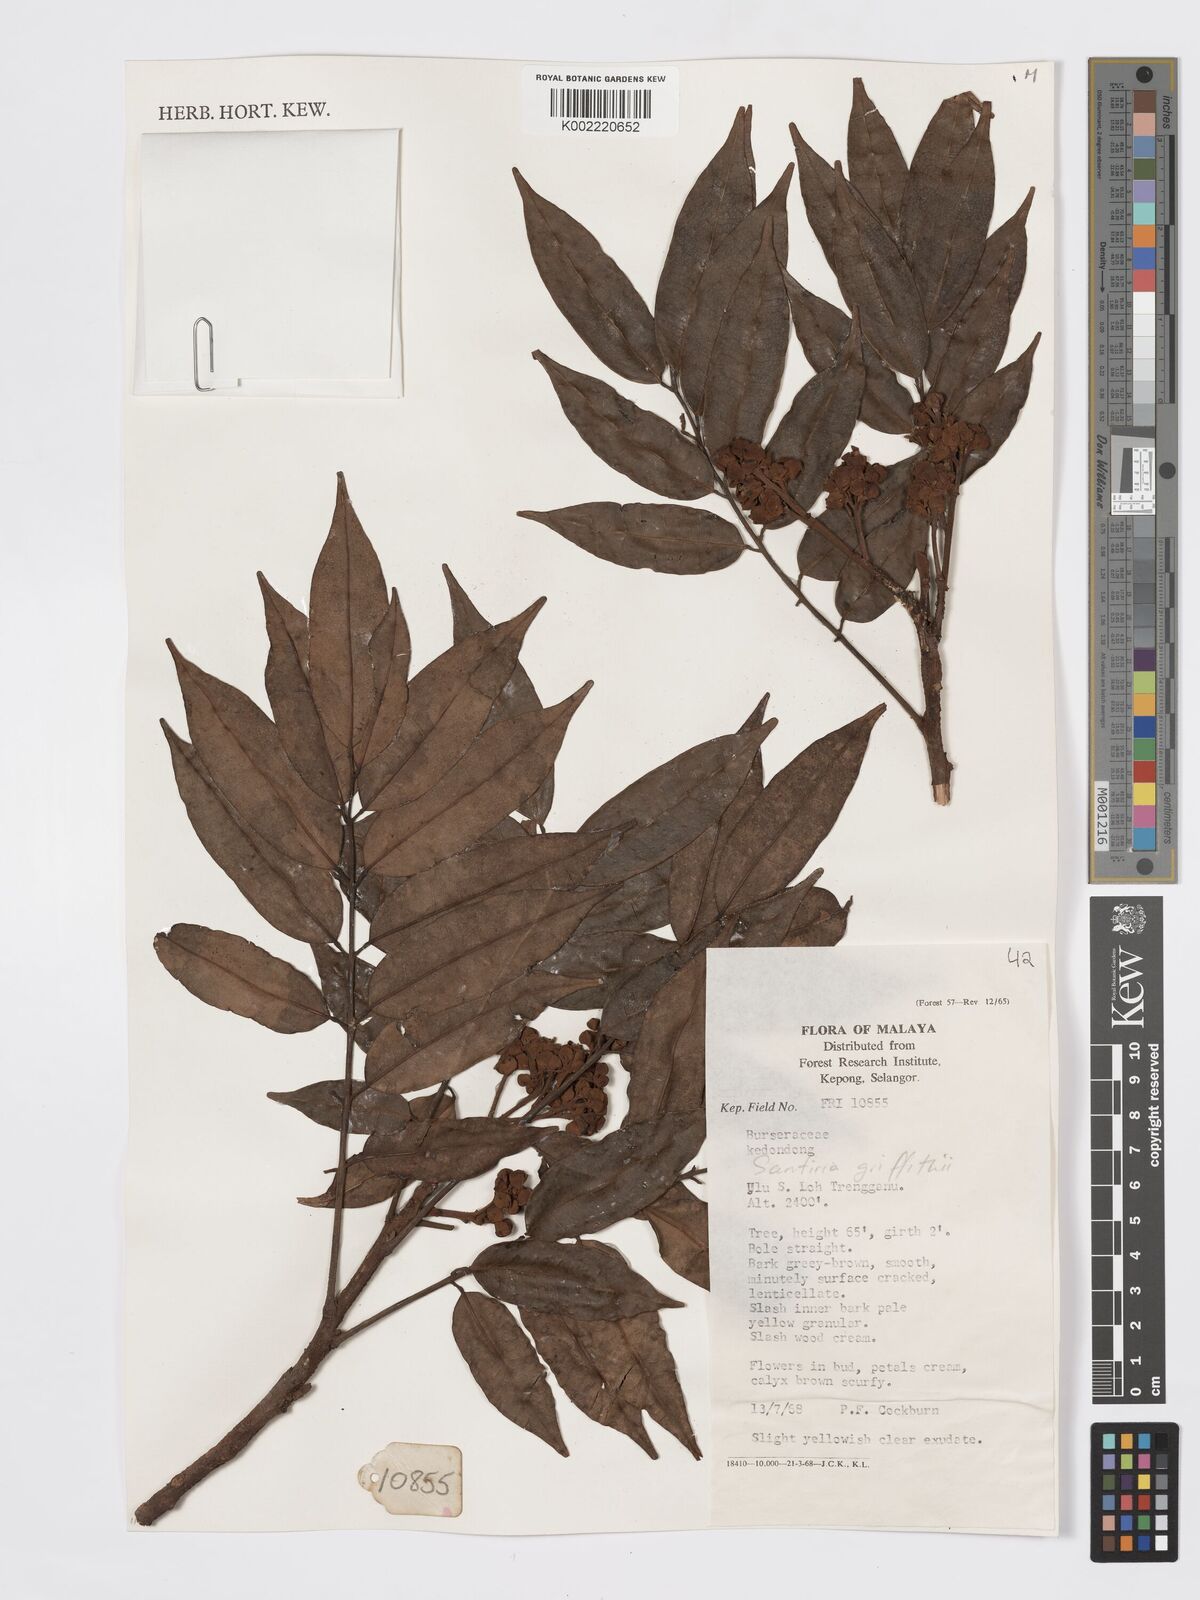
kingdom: Plantae
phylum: Tracheophyta
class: Magnoliopsida
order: Sapindales
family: Burseraceae
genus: Santiria
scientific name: Santiria griffithii
